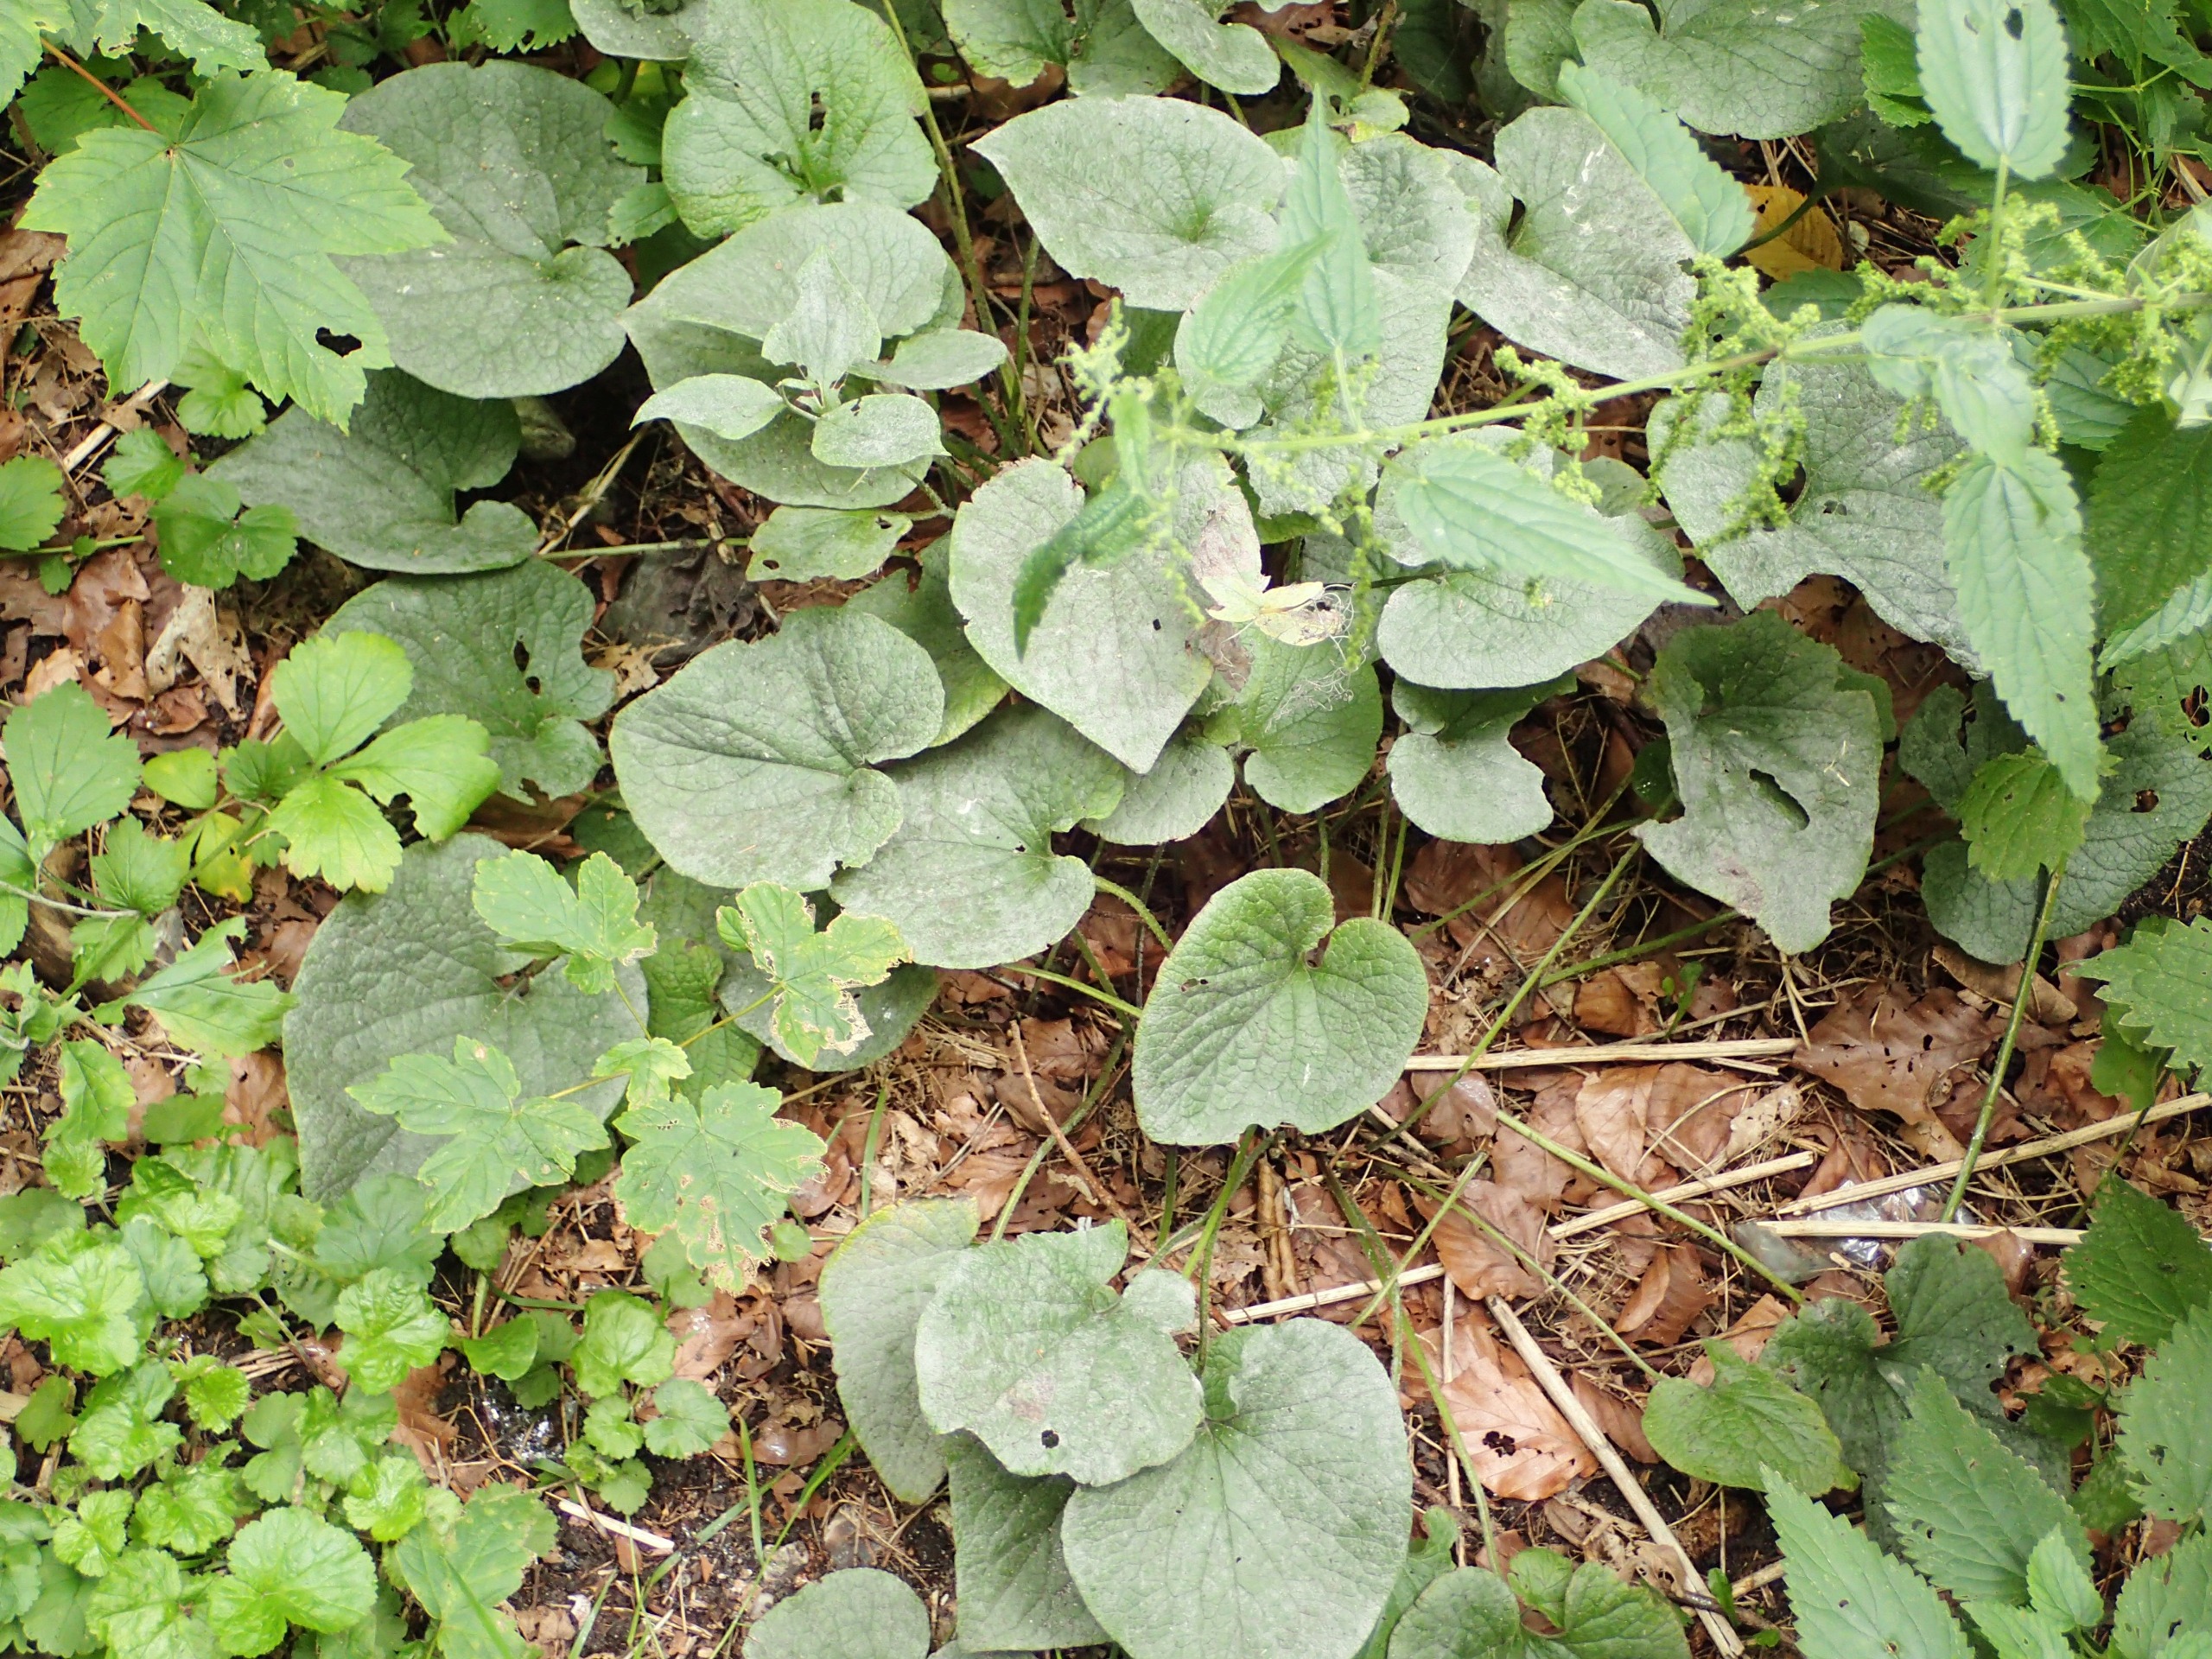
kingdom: Plantae
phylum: Tracheophyta
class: Magnoliopsida
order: Boraginales
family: Boraginaceae
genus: Brunnera
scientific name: Brunnera macrophylla
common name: Kærmindesøster
